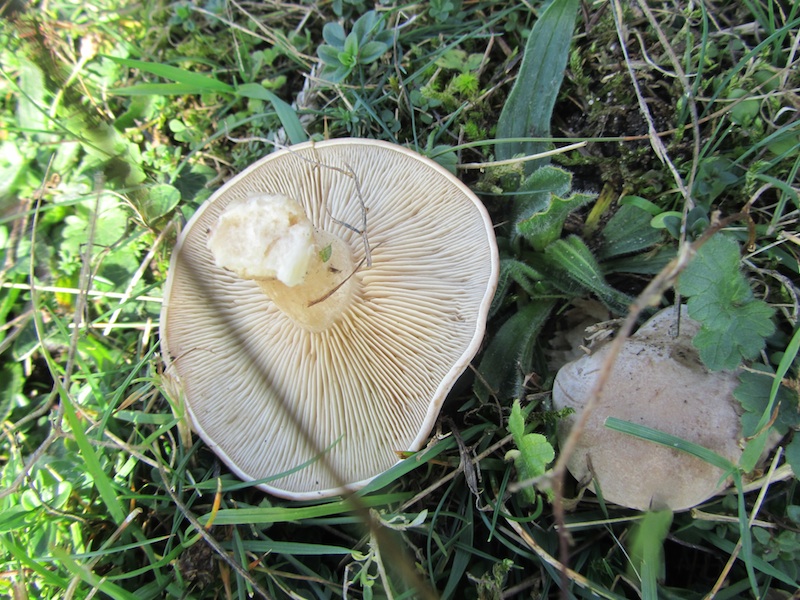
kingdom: Fungi
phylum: Basidiomycota
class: Agaricomycetes
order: Agaricales
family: Tricholomataceae
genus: Lepista
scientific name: Lepista panaeolus
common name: marmoreret hekseringshat
